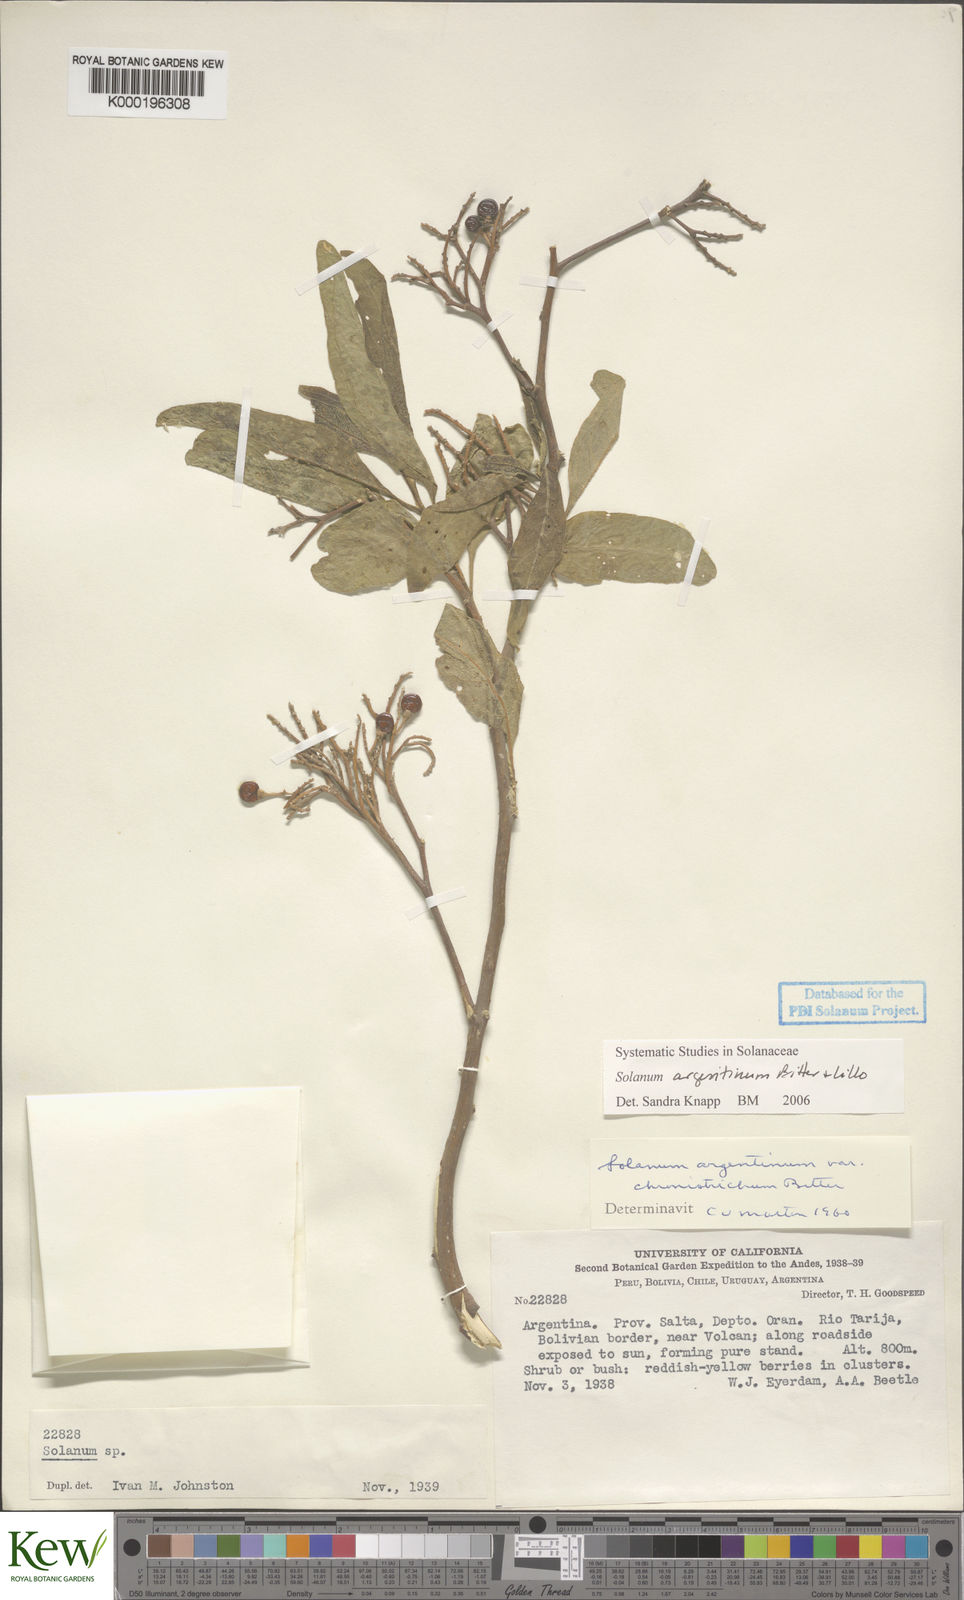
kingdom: Plantae
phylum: Tracheophyta
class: Magnoliopsida
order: Solanales
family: Solanaceae
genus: Solanum
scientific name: Solanum argentinum
